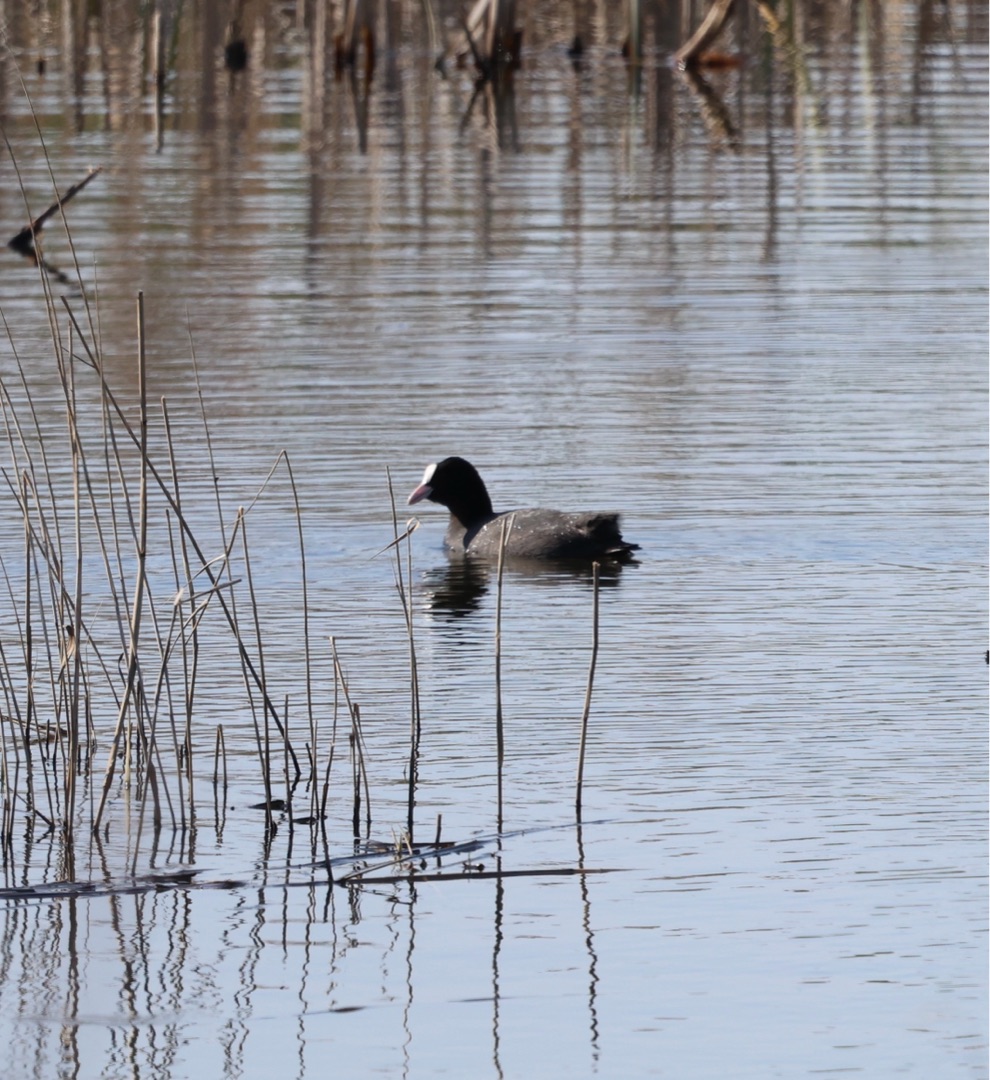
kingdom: Animalia
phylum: Chordata
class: Aves
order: Gruiformes
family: Rallidae
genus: Fulica
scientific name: Fulica atra
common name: Blishøne
